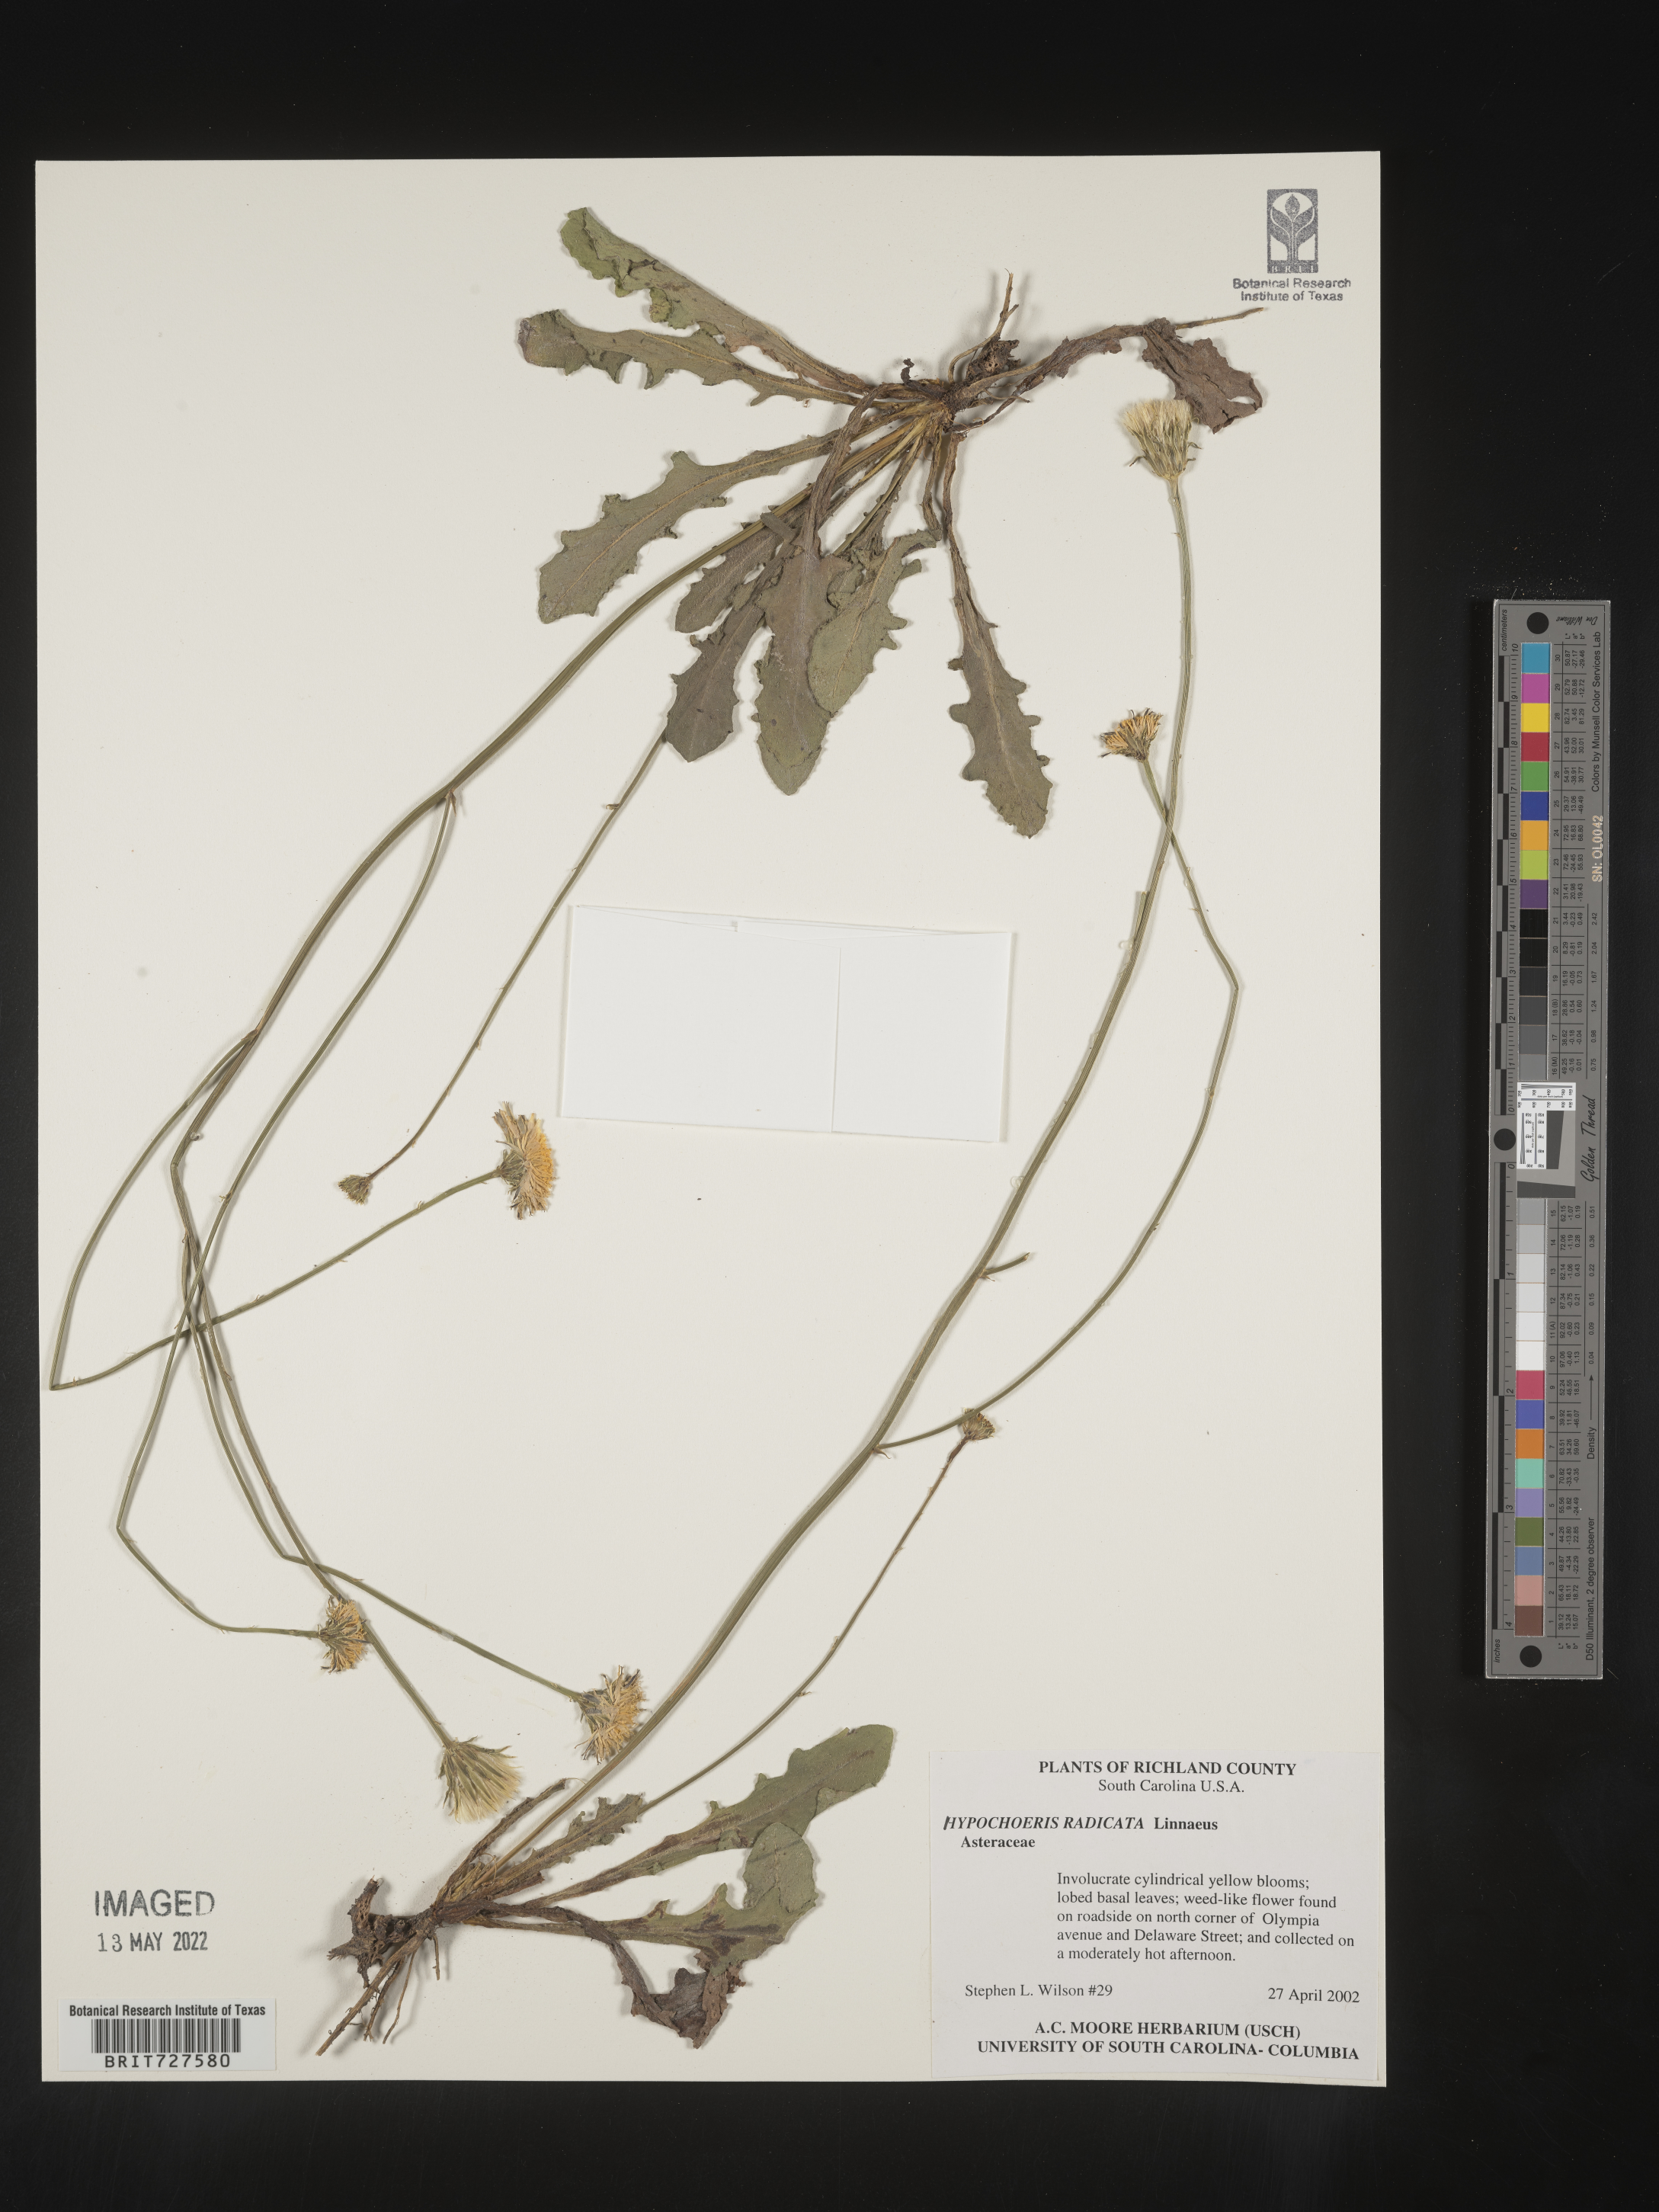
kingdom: Plantae
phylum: Tracheophyta
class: Magnoliopsida
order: Asterales
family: Asteraceae
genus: Hypochaeris
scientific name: Hypochaeris radicata
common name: Flatweed
